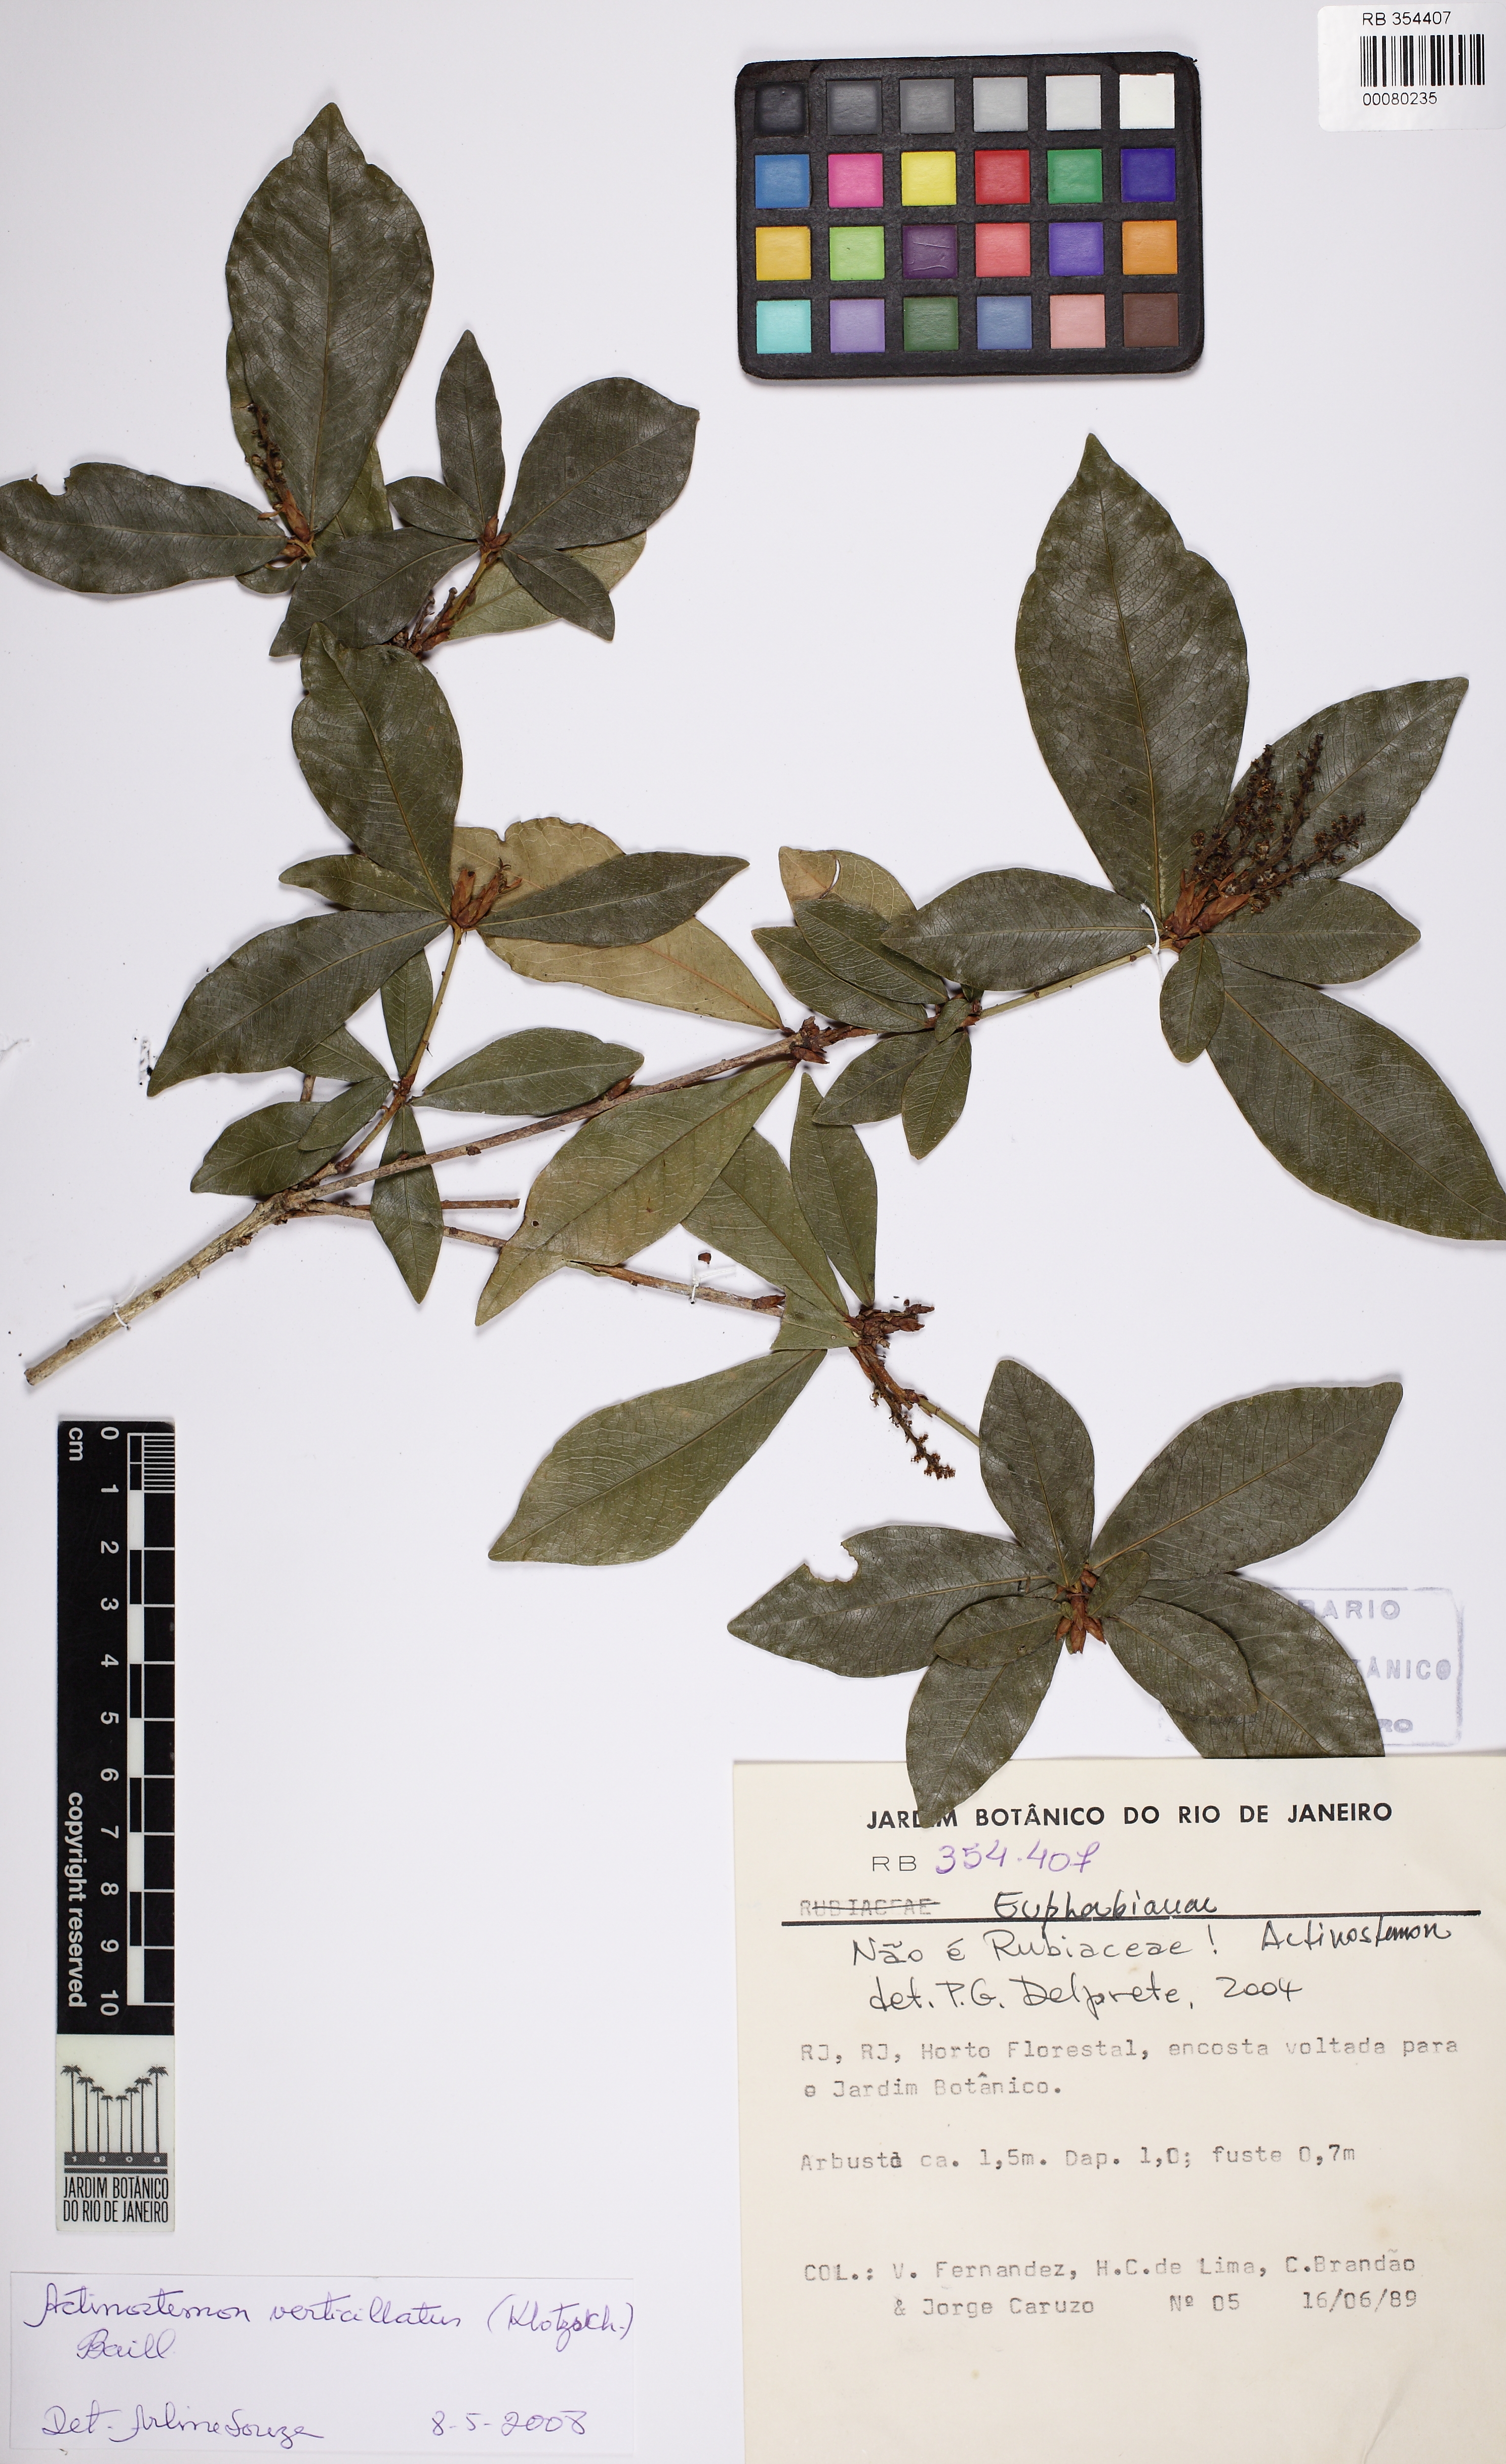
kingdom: Plantae
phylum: Tracheophyta
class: Magnoliopsida
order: Malpighiales
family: Euphorbiaceae
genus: Actinostemon
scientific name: Actinostemon verticillatus
